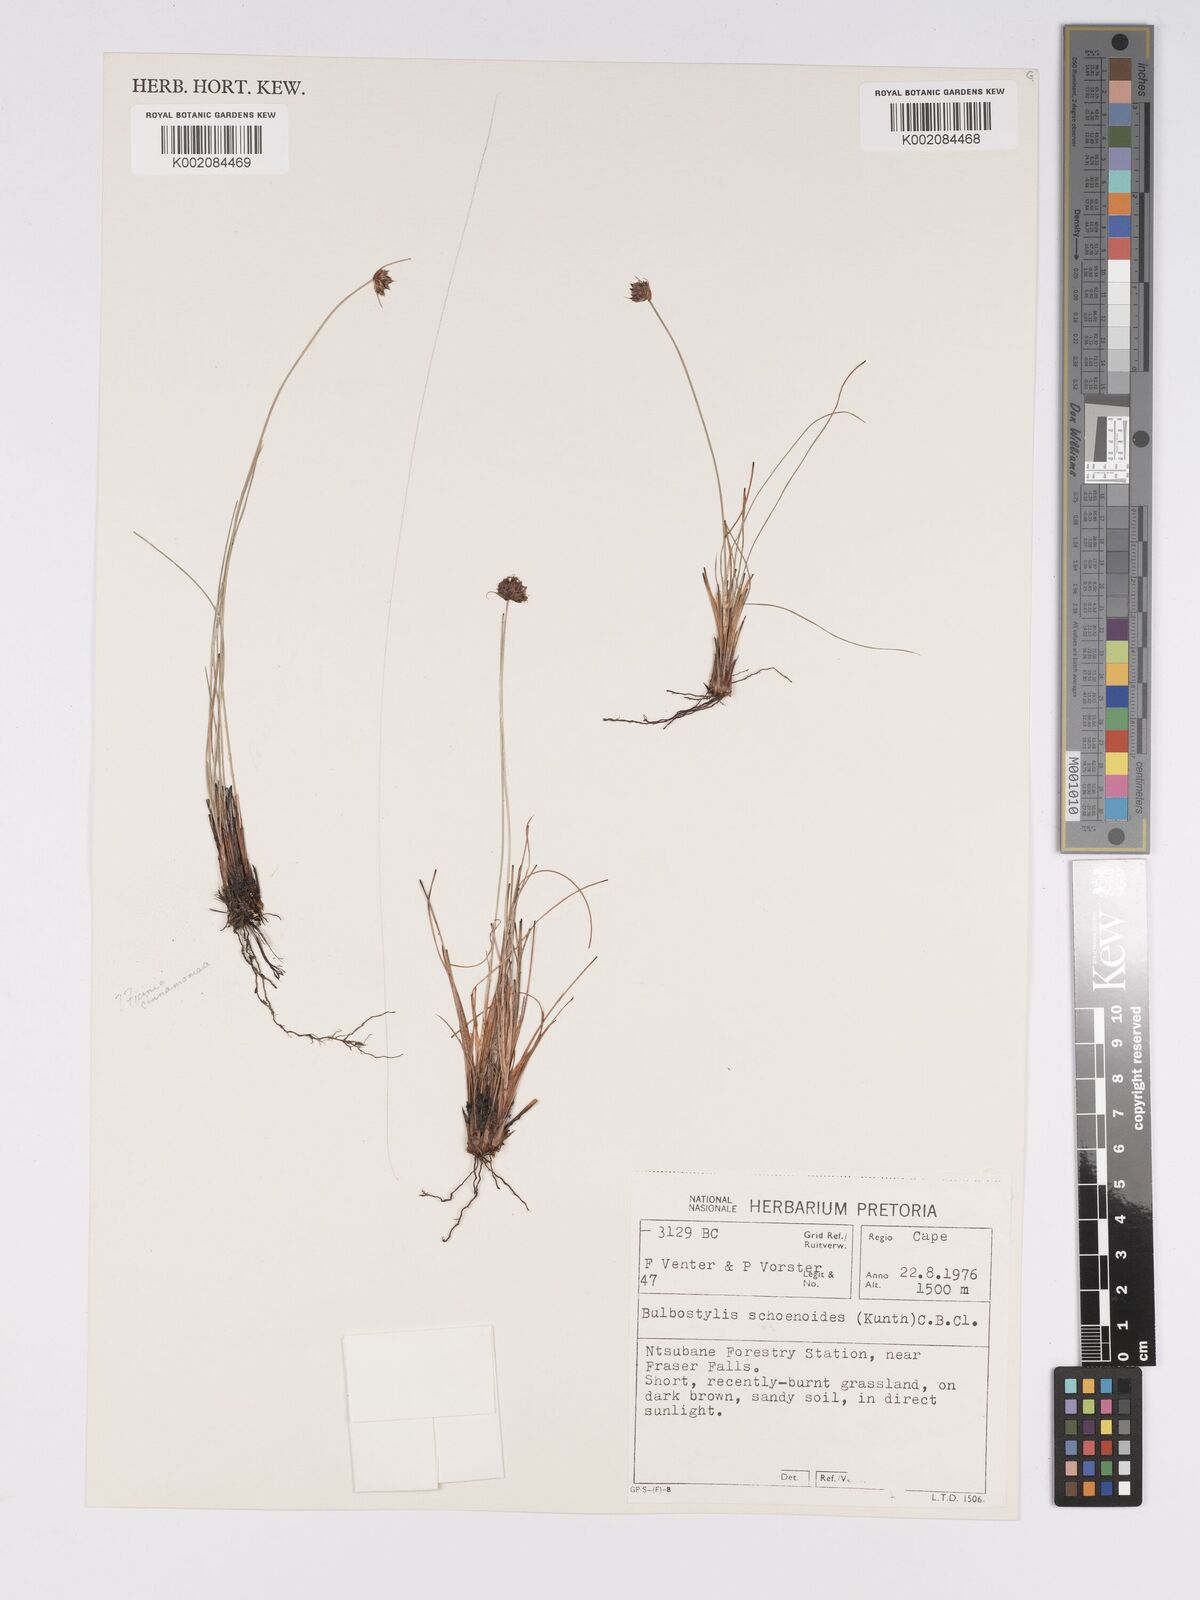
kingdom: Plantae
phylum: Tracheophyta
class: Liliopsida
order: Poales
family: Cyperaceae
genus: Bulbostylis
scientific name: Bulbostylis schoenoides
